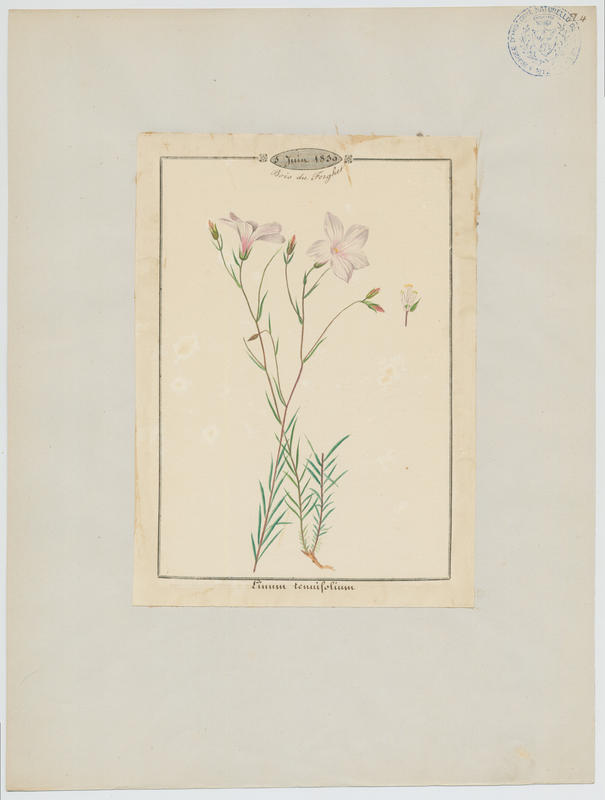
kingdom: Plantae
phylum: Tracheophyta
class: Magnoliopsida
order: Malpighiales
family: Linaceae
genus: Linum
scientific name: Linum tenuifolium
